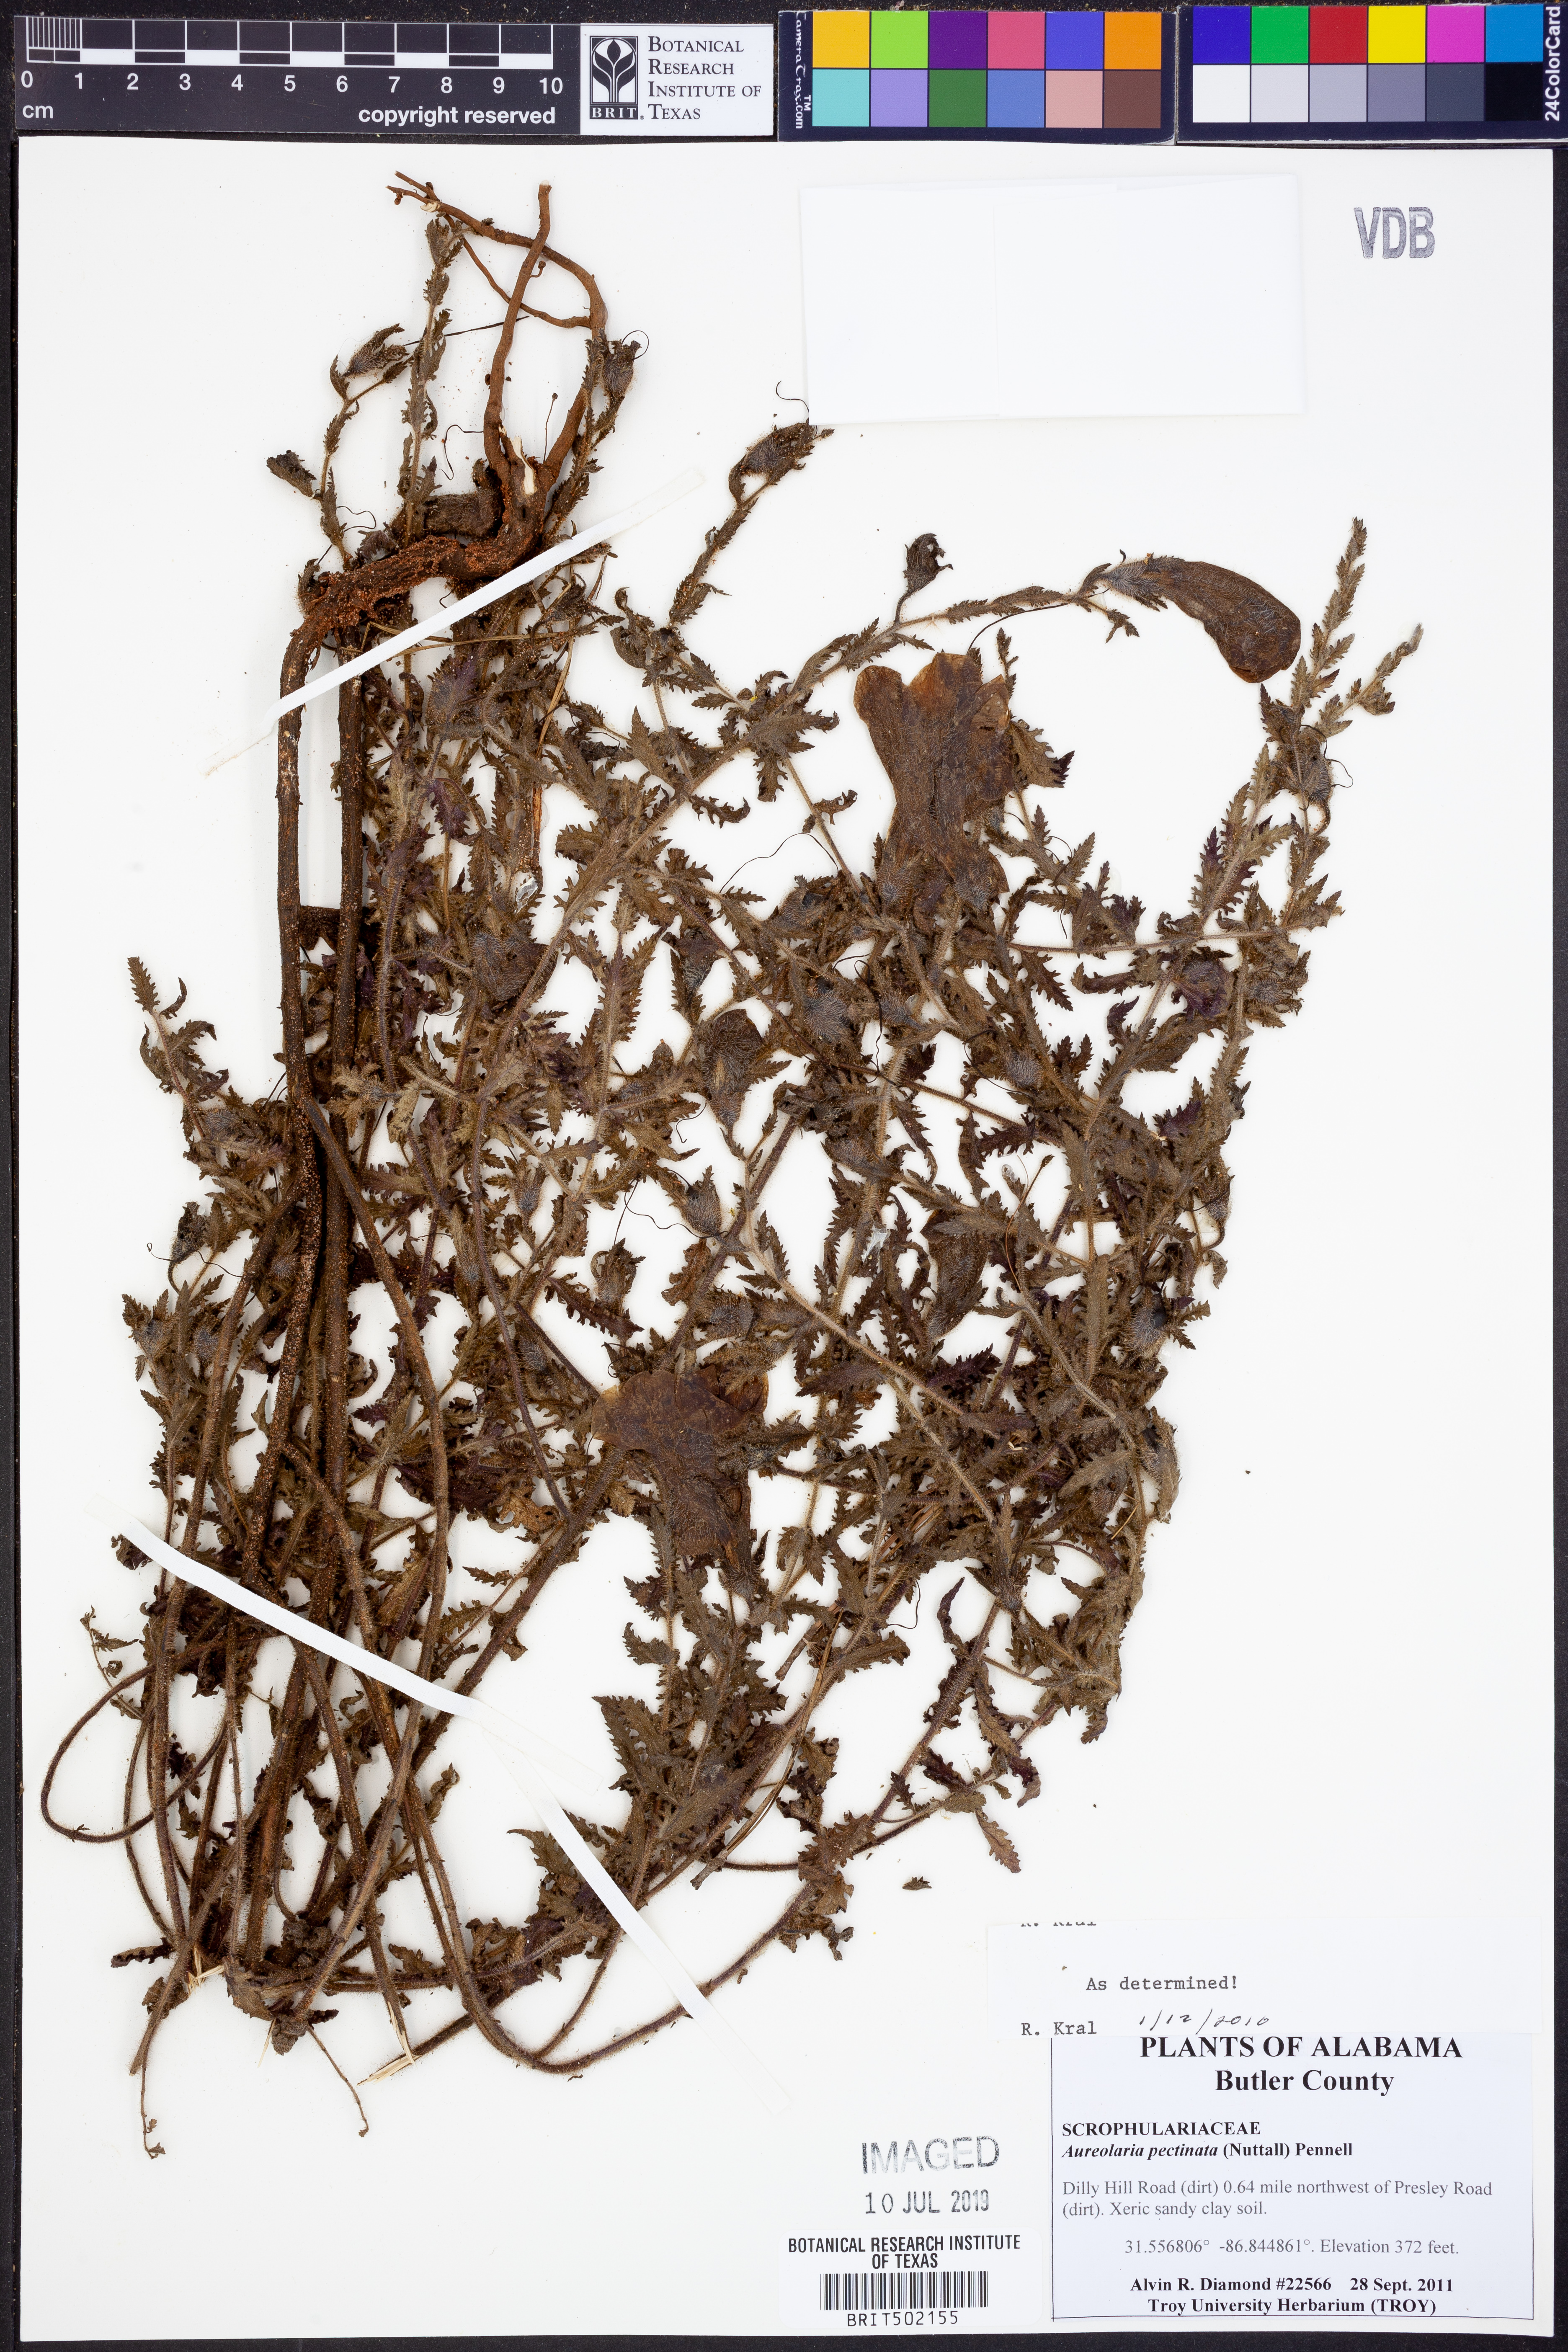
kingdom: Plantae
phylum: Tracheophyta
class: Magnoliopsida
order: Lamiales
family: Orobanchaceae
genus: Aureolaria
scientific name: Aureolaria pectinata
